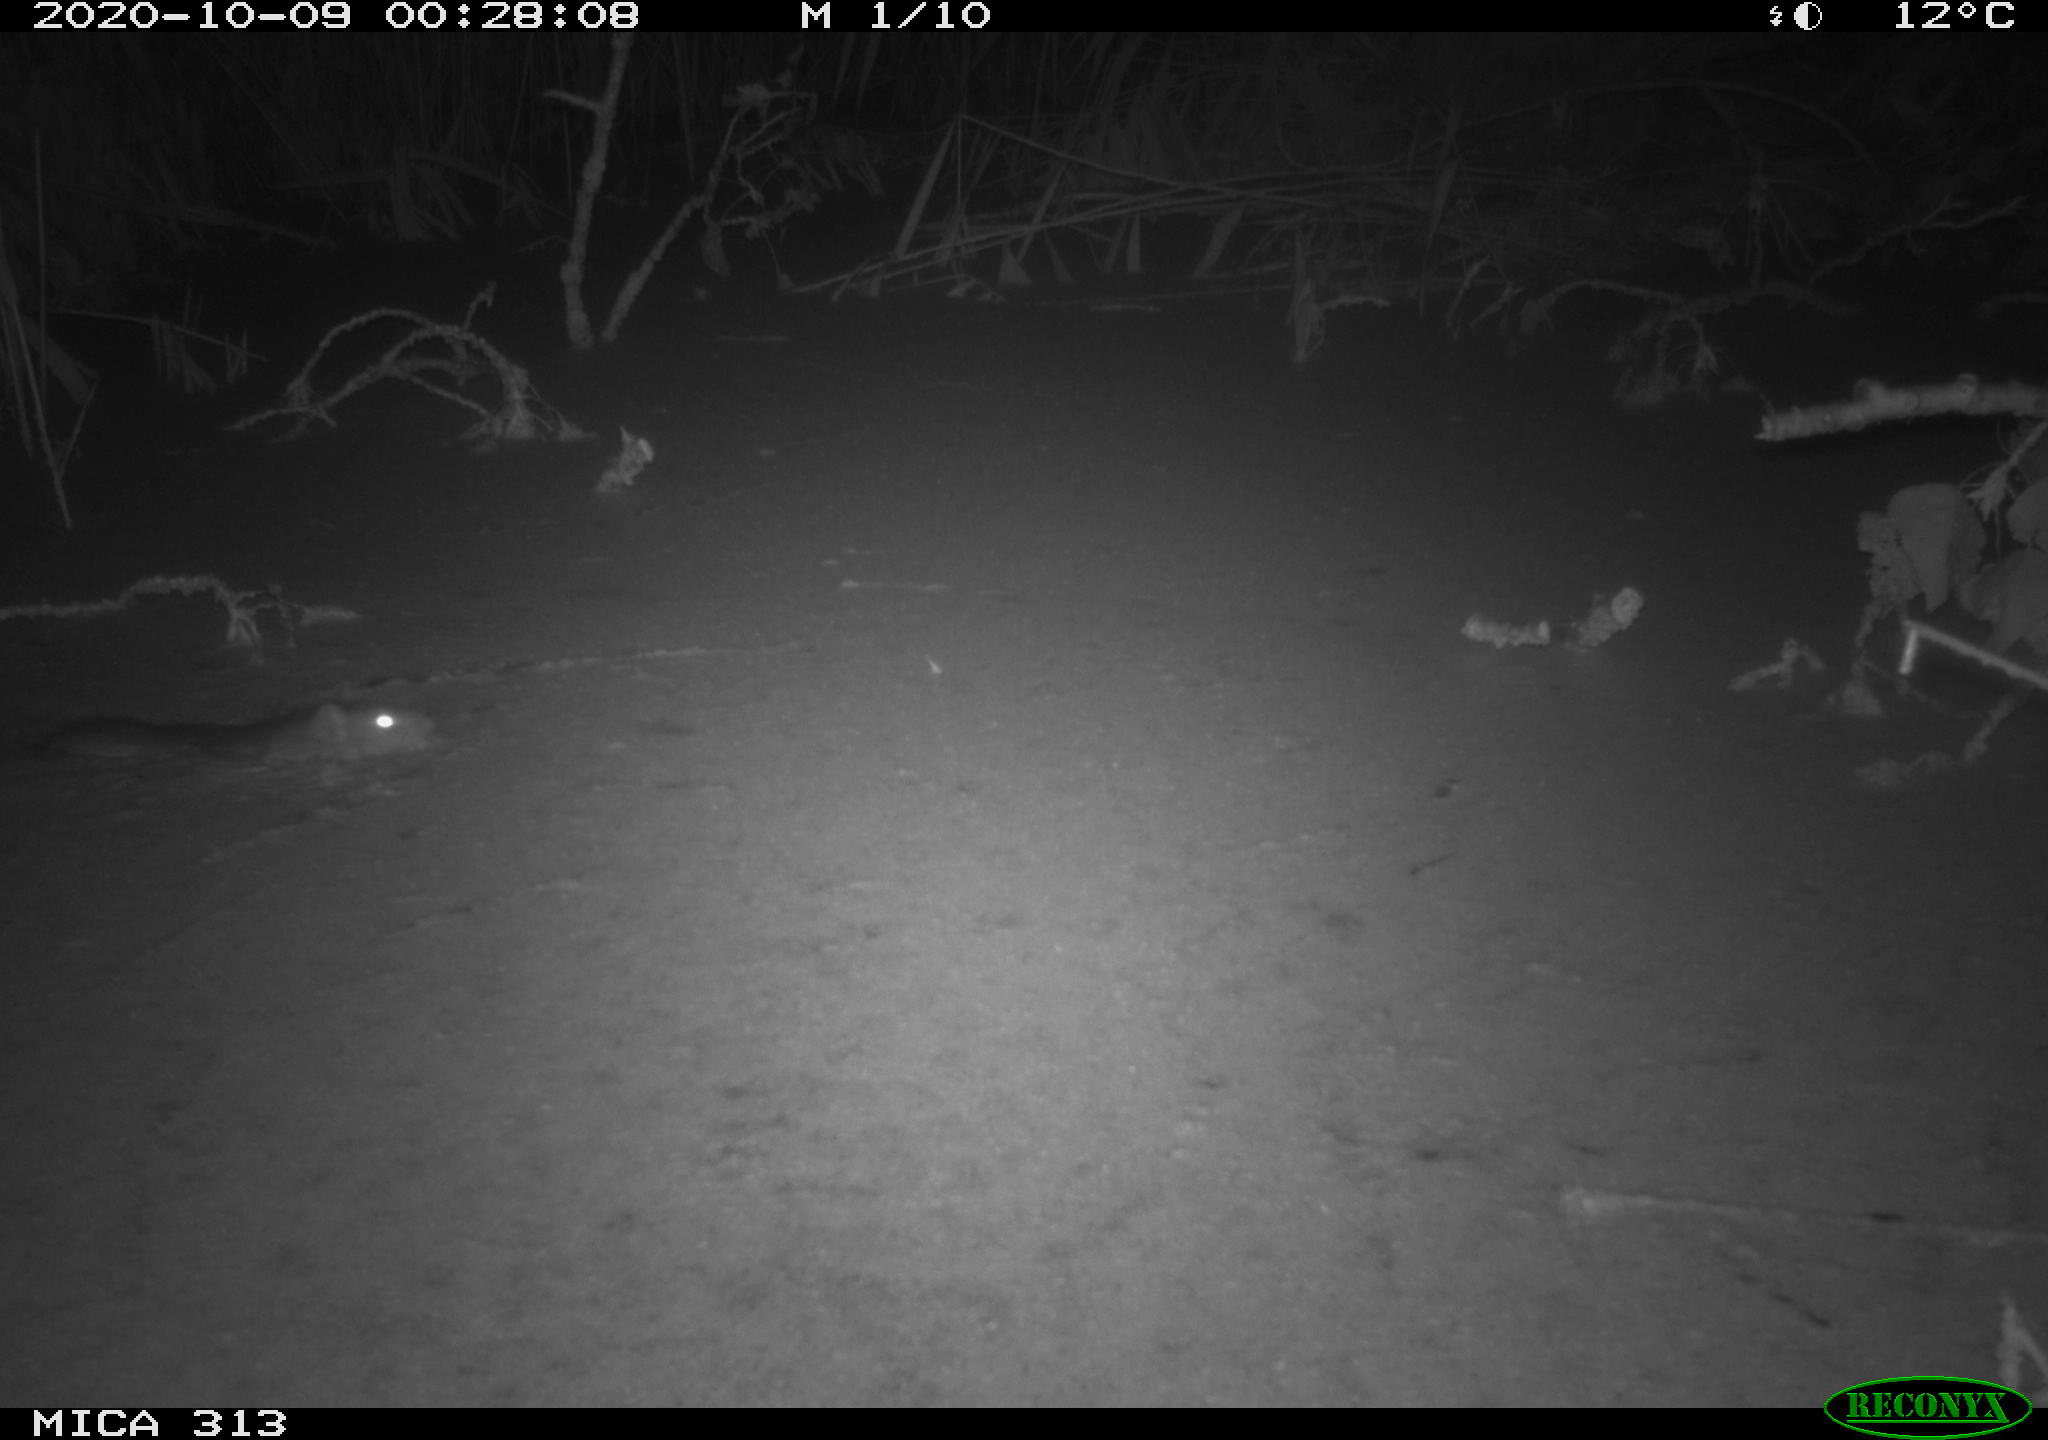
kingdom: Animalia
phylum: Chordata
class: Mammalia
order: Rodentia
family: Muridae
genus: Rattus
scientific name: Rattus norvegicus
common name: Brown rat
